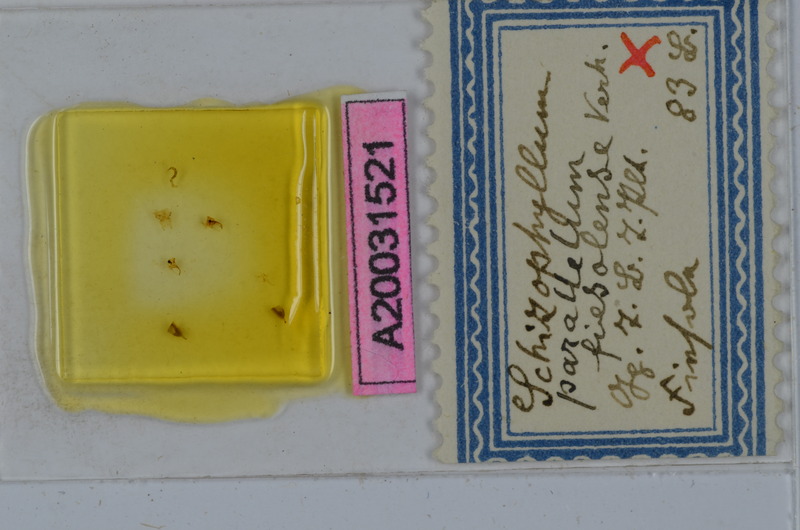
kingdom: Animalia
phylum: Arthropoda
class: Diplopoda
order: Julida
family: Julidae
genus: Schizophyllum
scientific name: Schizophyllum parallelum
